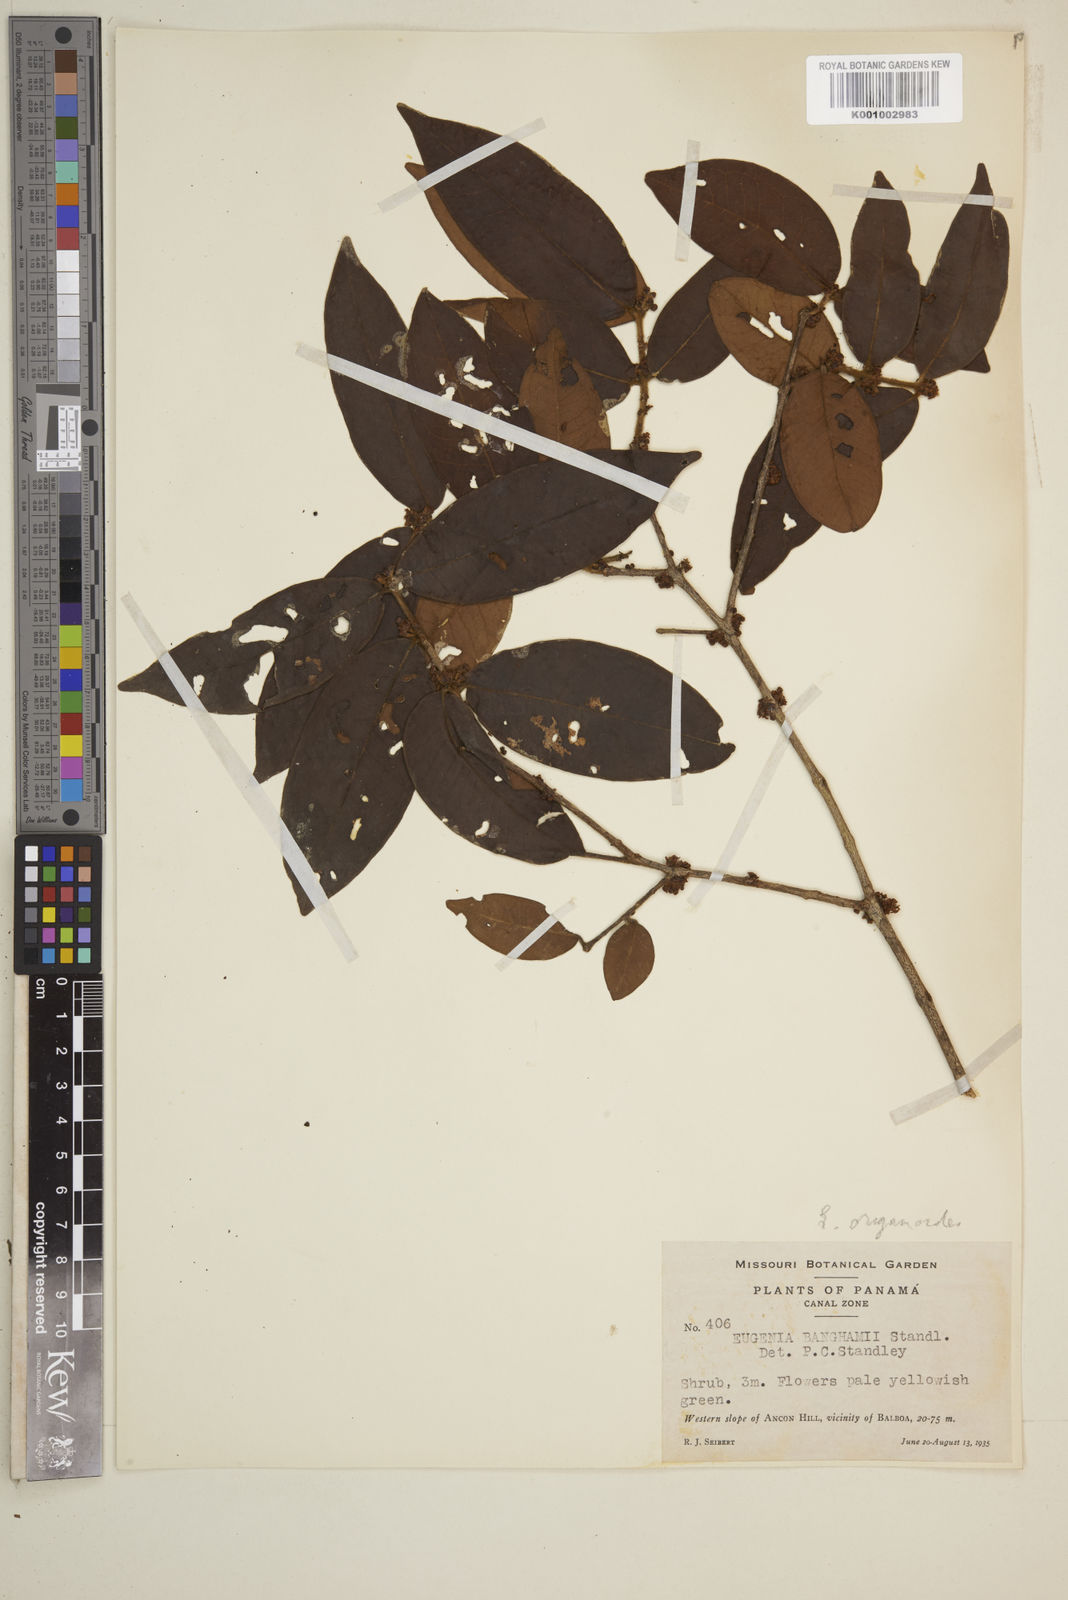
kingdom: Plantae
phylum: Tracheophyta
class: Magnoliopsida
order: Myrtales
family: Myrtaceae
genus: Eugenia
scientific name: Eugenia venezuelensis
